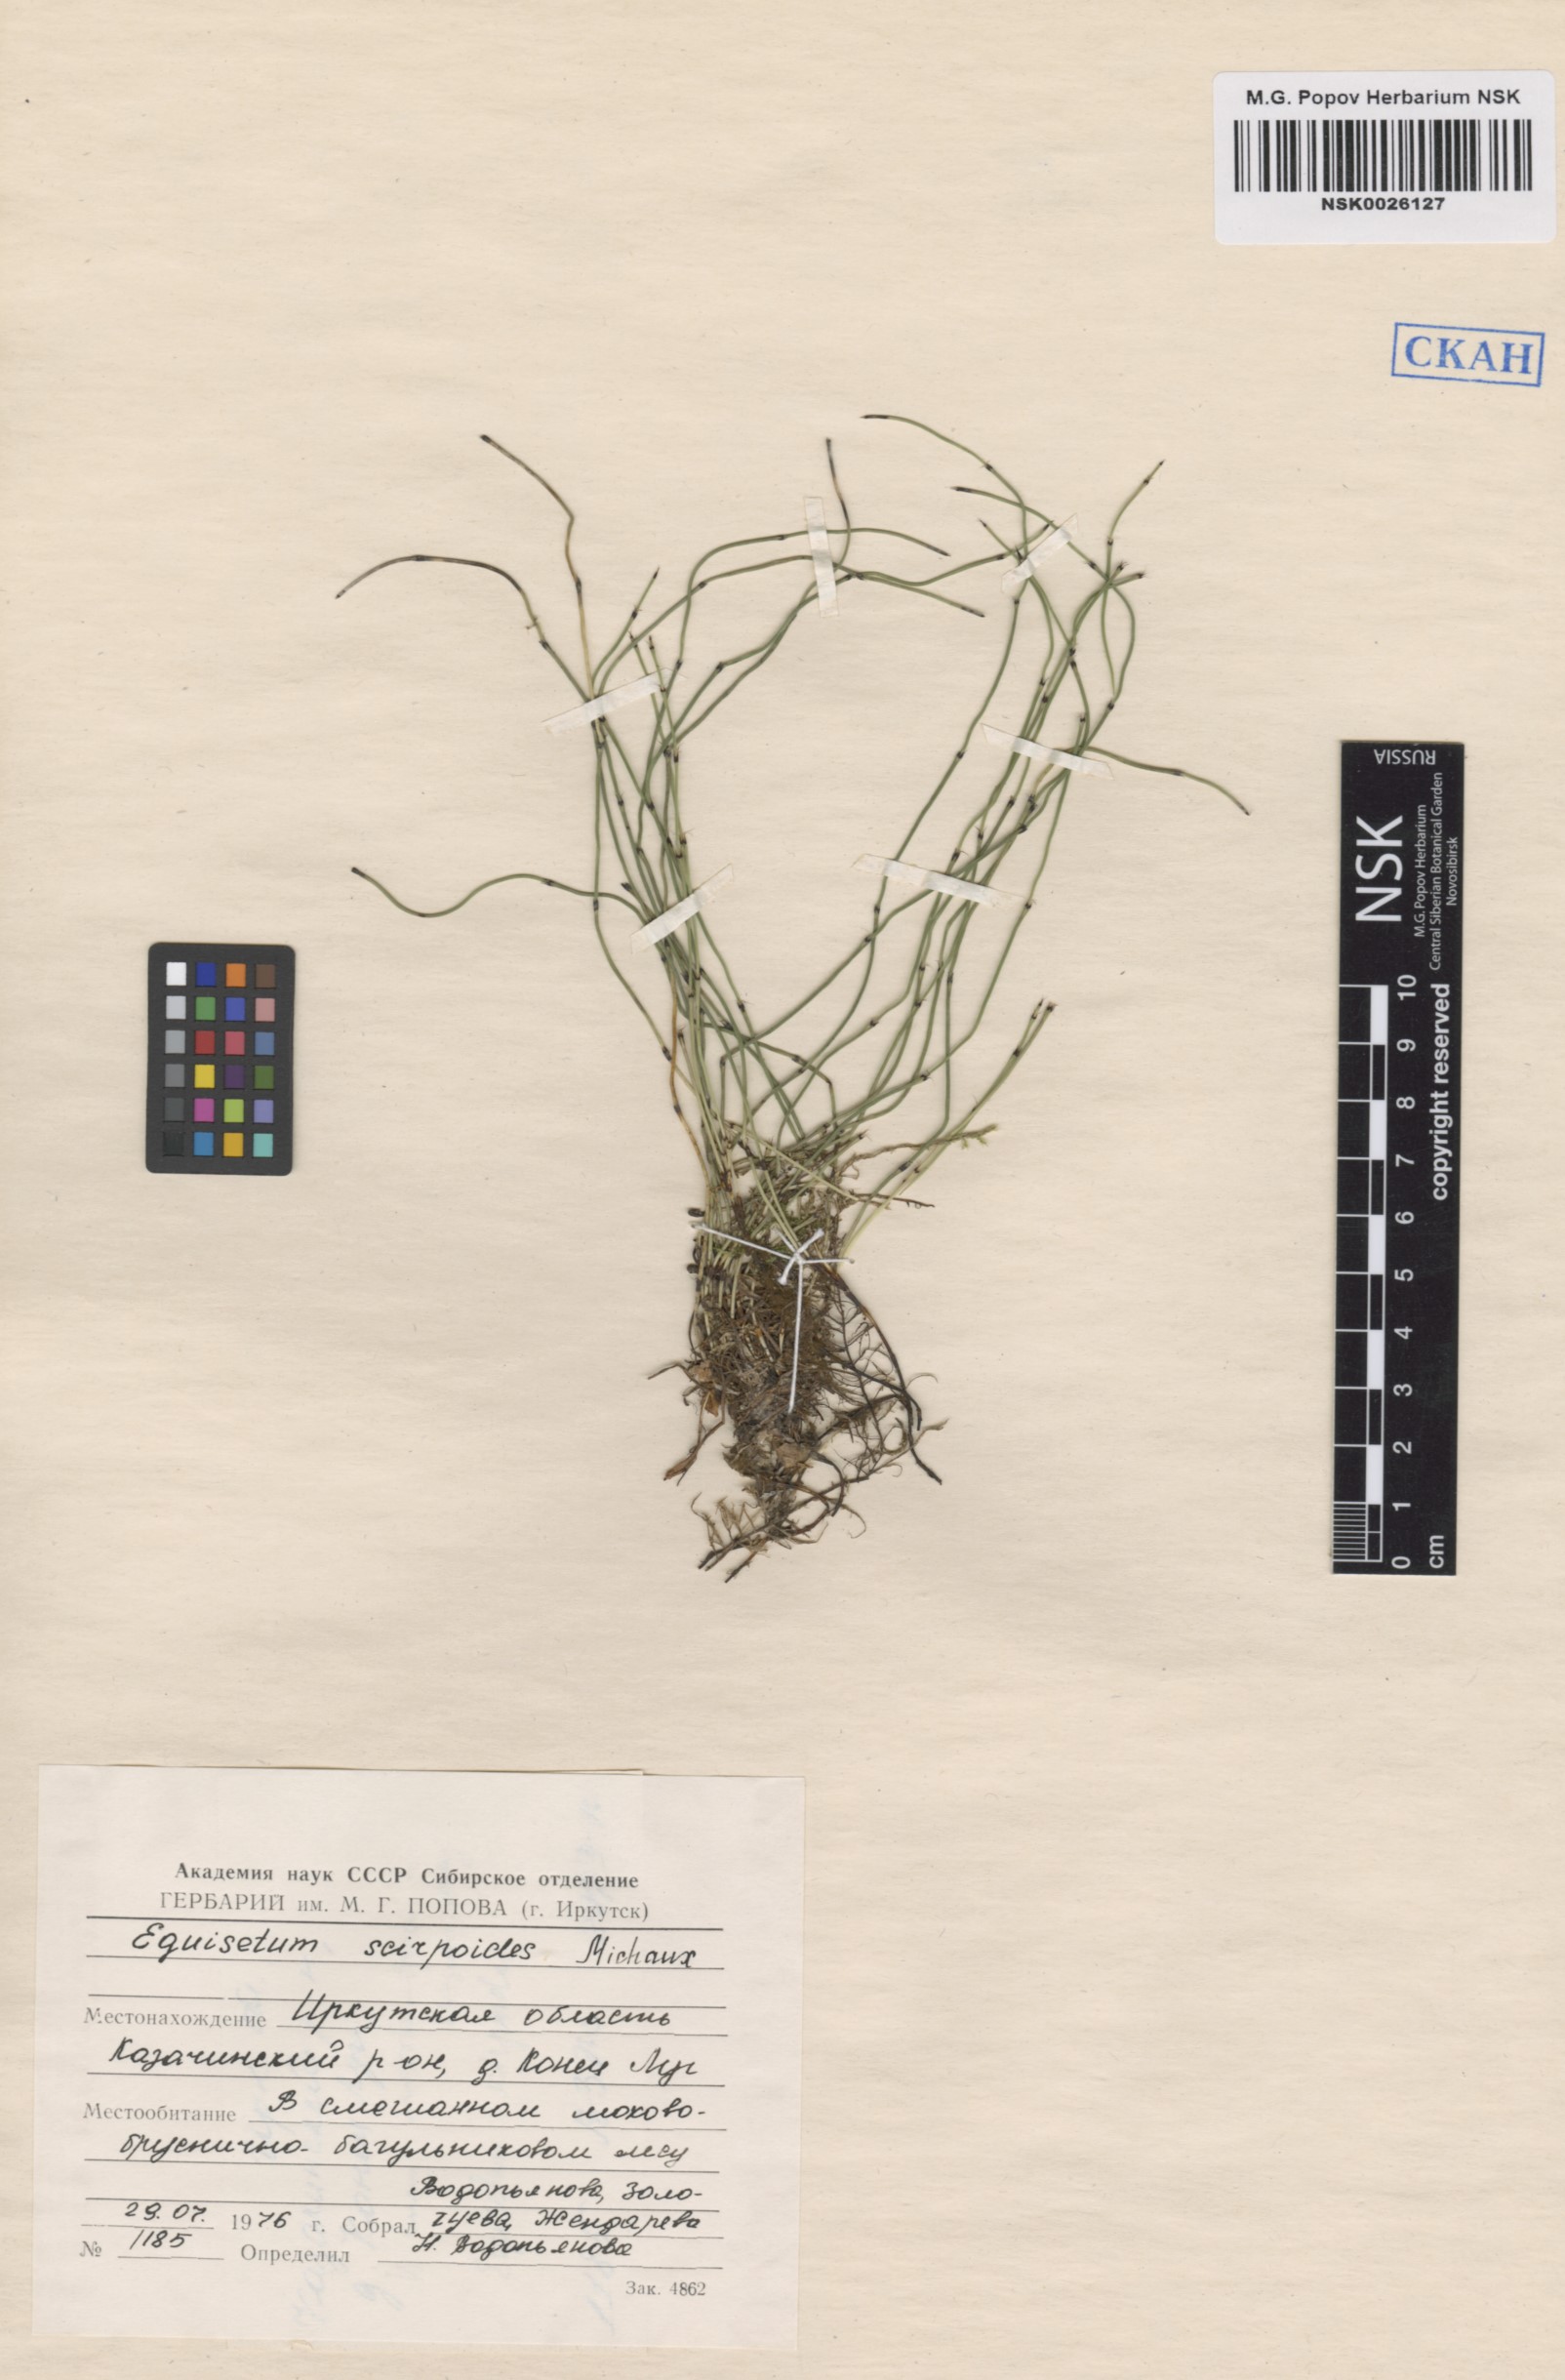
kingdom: Plantae
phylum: Tracheophyta
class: Polypodiopsida
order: Equisetales
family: Equisetaceae
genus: Equisetum
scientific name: Equisetum scirpoides
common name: Delicate horsetail
